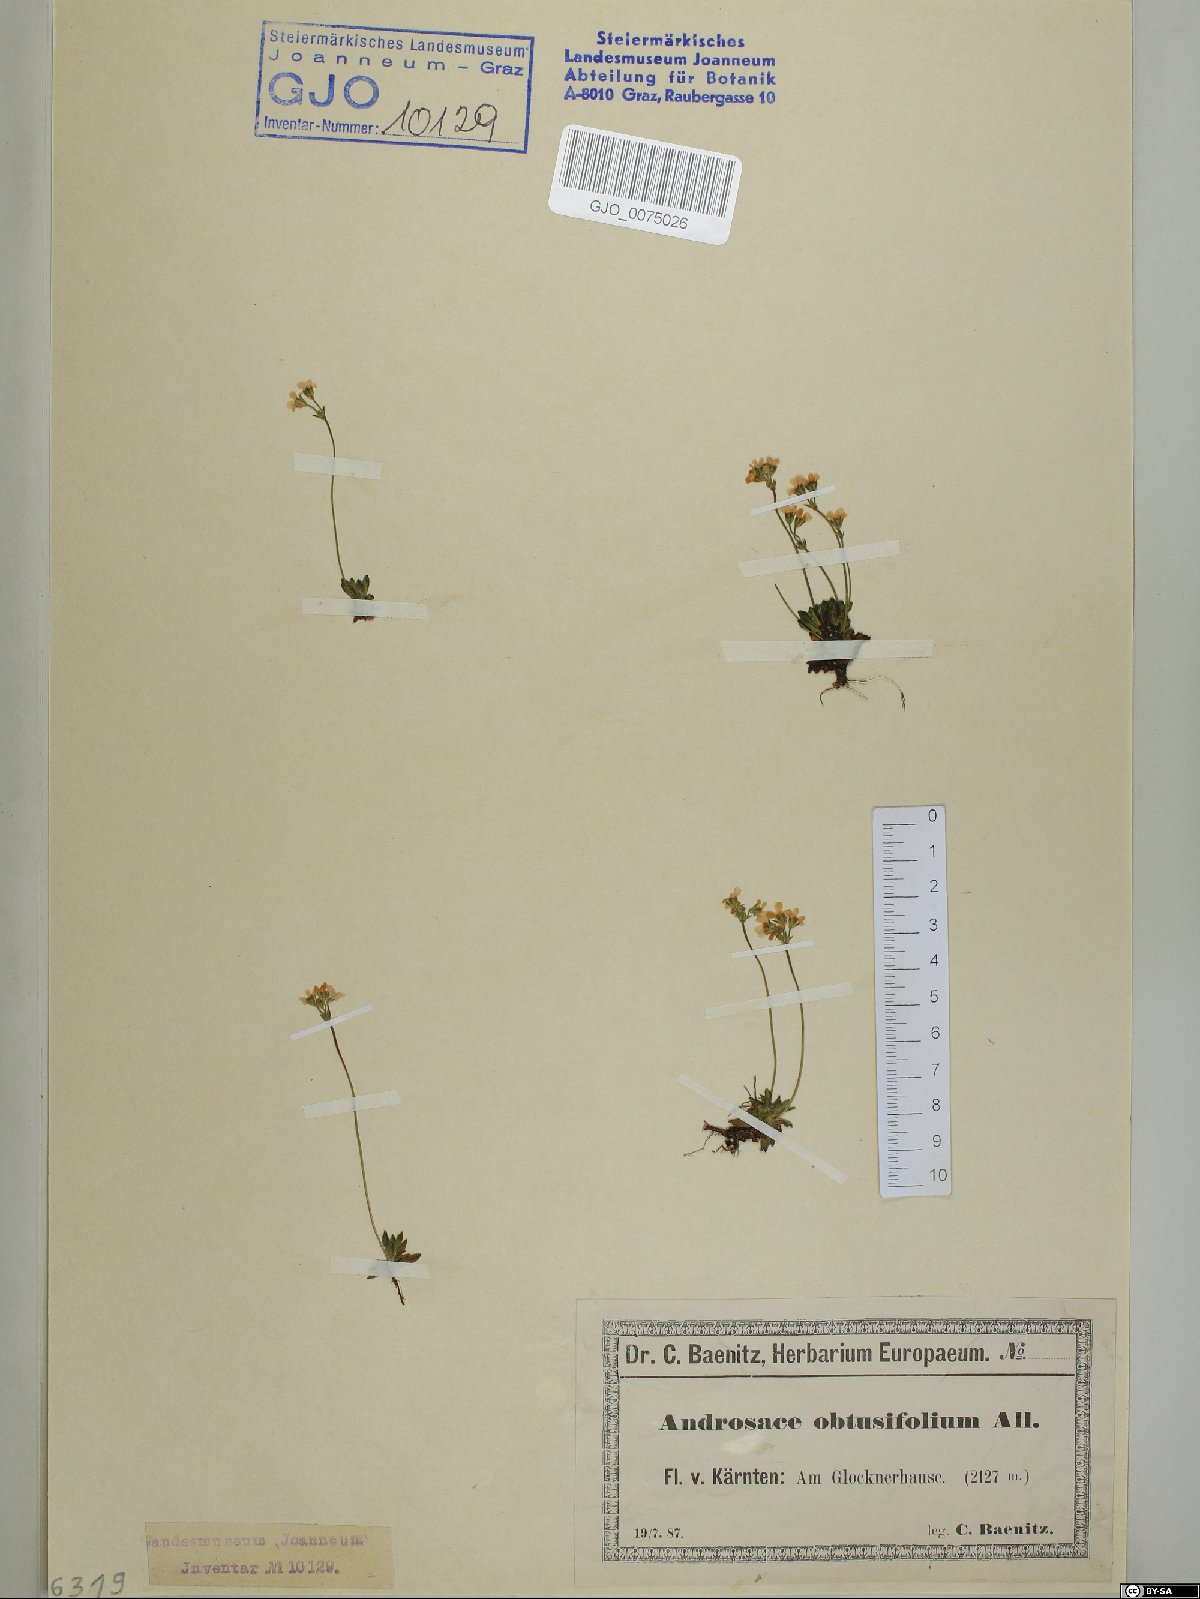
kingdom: Plantae
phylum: Tracheophyta
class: Magnoliopsida
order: Ericales
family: Primulaceae
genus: Androsace
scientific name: Androsace obtusifolia
